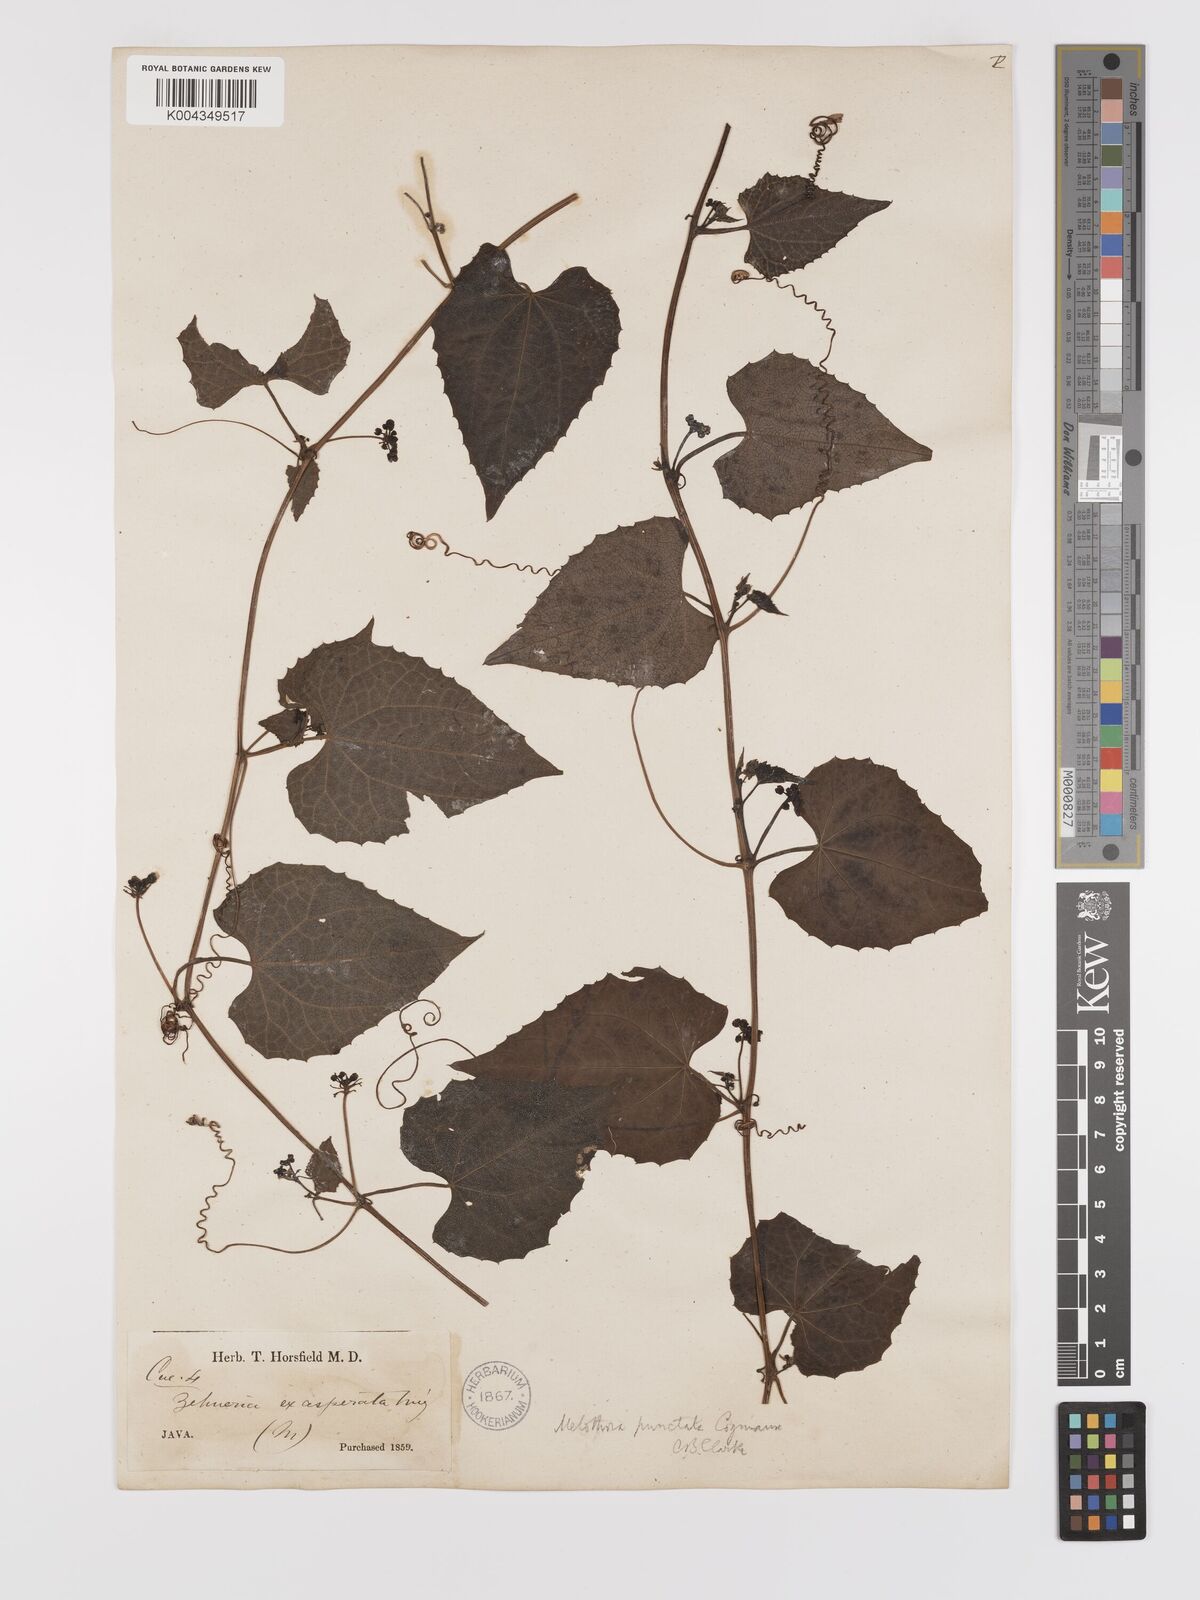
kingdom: Plantae
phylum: Tracheophyta
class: Magnoliopsida
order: Cucurbitales
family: Cucurbitaceae
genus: Zehneria
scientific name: Zehneria scabra
